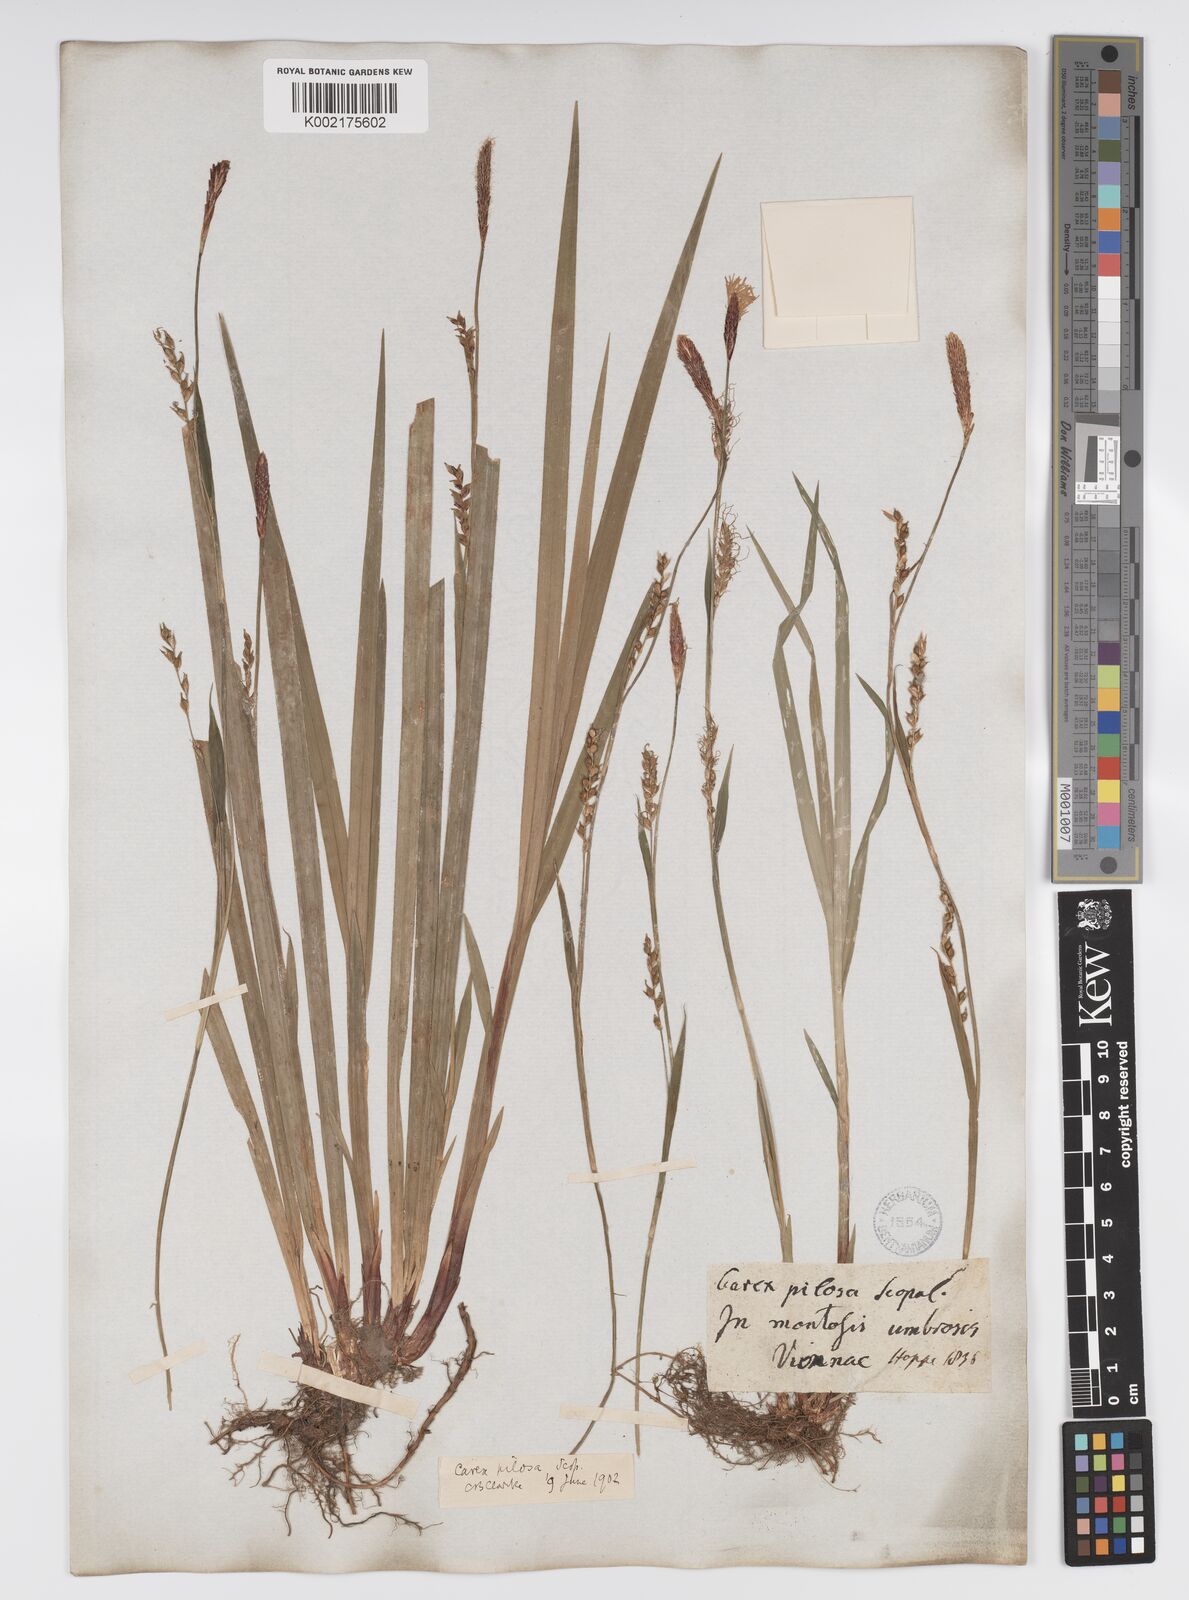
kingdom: Plantae
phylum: Tracheophyta
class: Liliopsida
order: Poales
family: Cyperaceae
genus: Carex
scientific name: Carex pilosa
